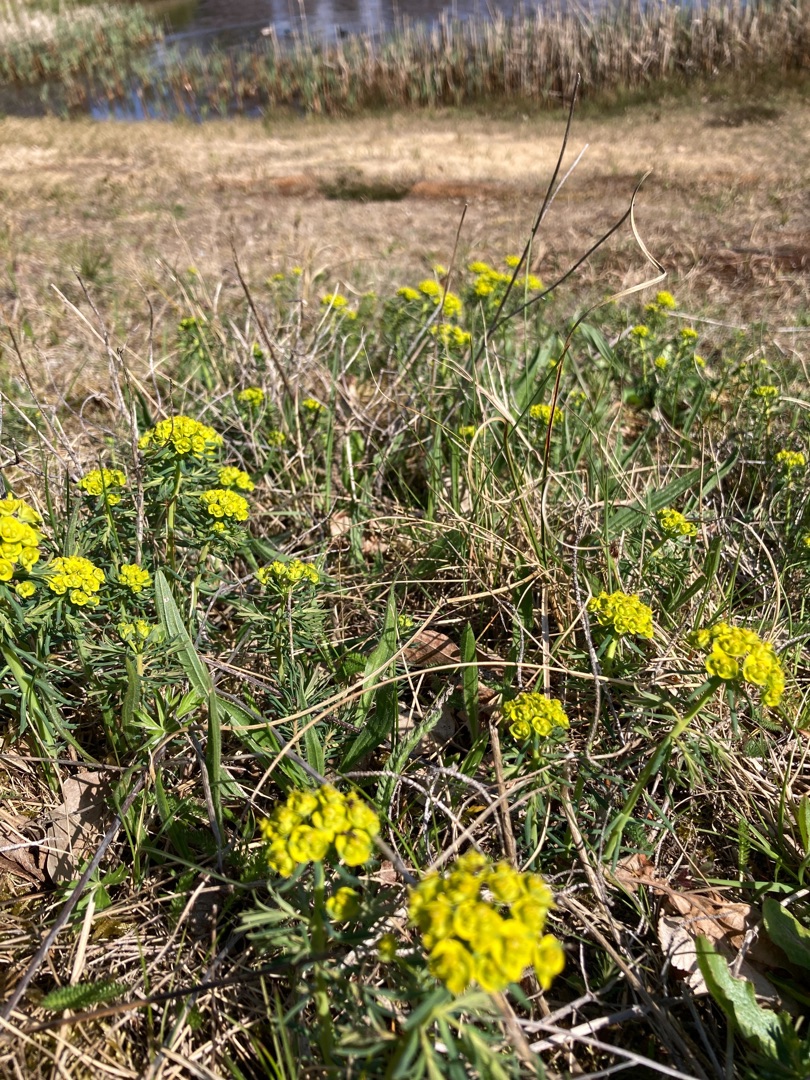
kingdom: Plantae
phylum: Tracheophyta
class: Magnoliopsida
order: Malpighiales
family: Euphorbiaceae
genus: Euphorbia
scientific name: Euphorbia cyparissias
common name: Cypres-vortemælk
